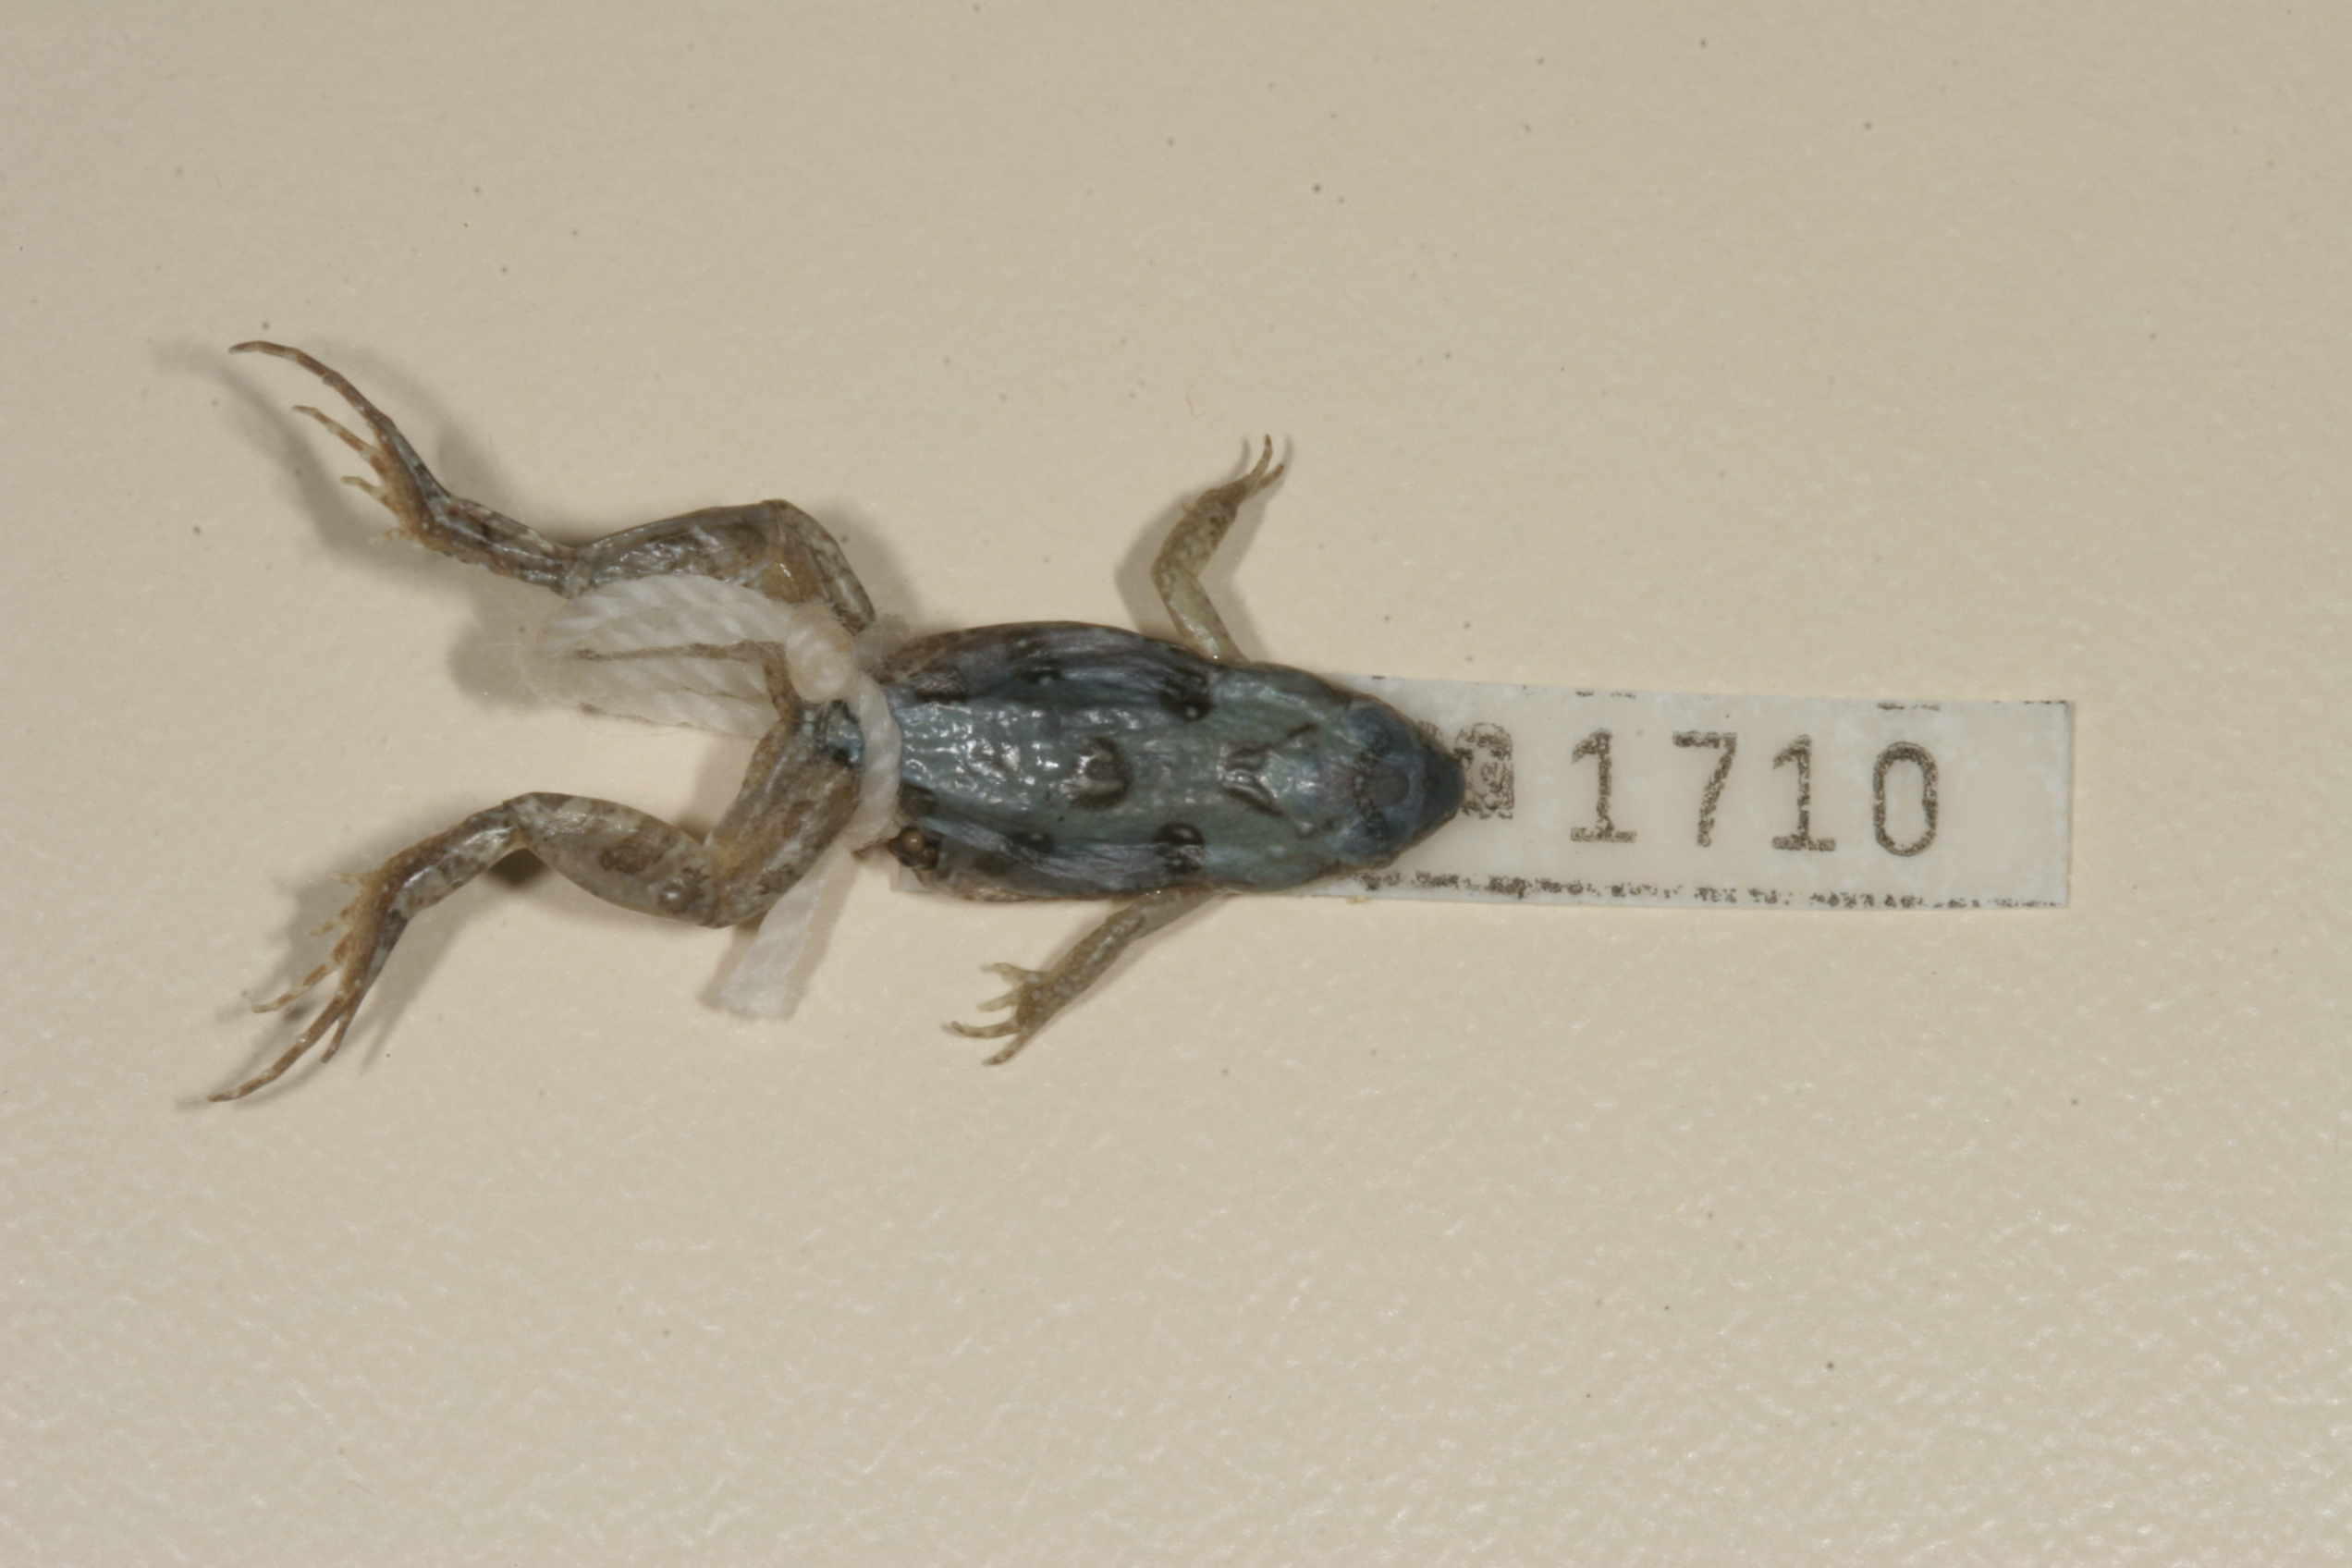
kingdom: Animalia
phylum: Chordata
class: Amphibia
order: Anura
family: Pyxicephalidae
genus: Cacosternum
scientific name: Cacosternum boettgeri
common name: Boettger's frog
